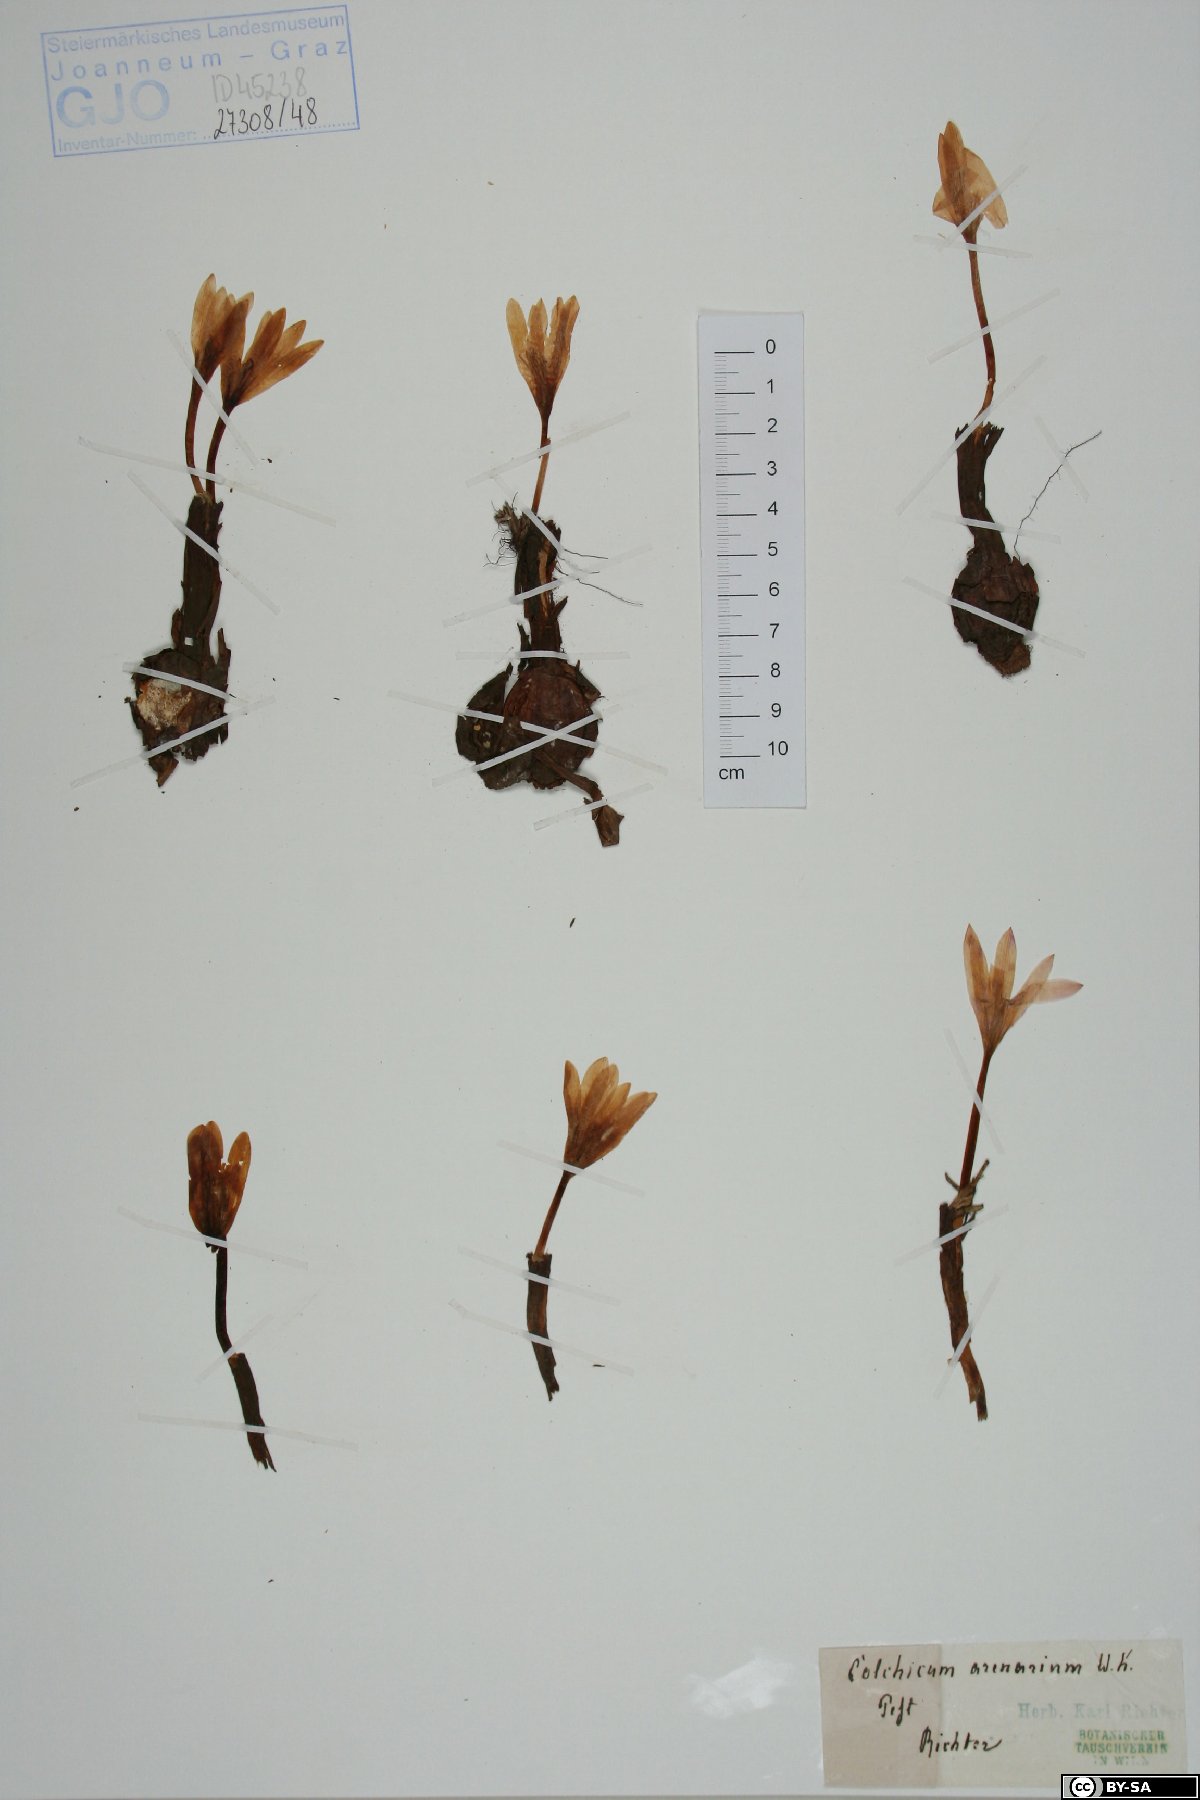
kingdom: Plantae
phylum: Tracheophyta
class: Liliopsida
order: Liliales
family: Colchicaceae
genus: Colchicum
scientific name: Colchicum arenarium
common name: Sand saffron
